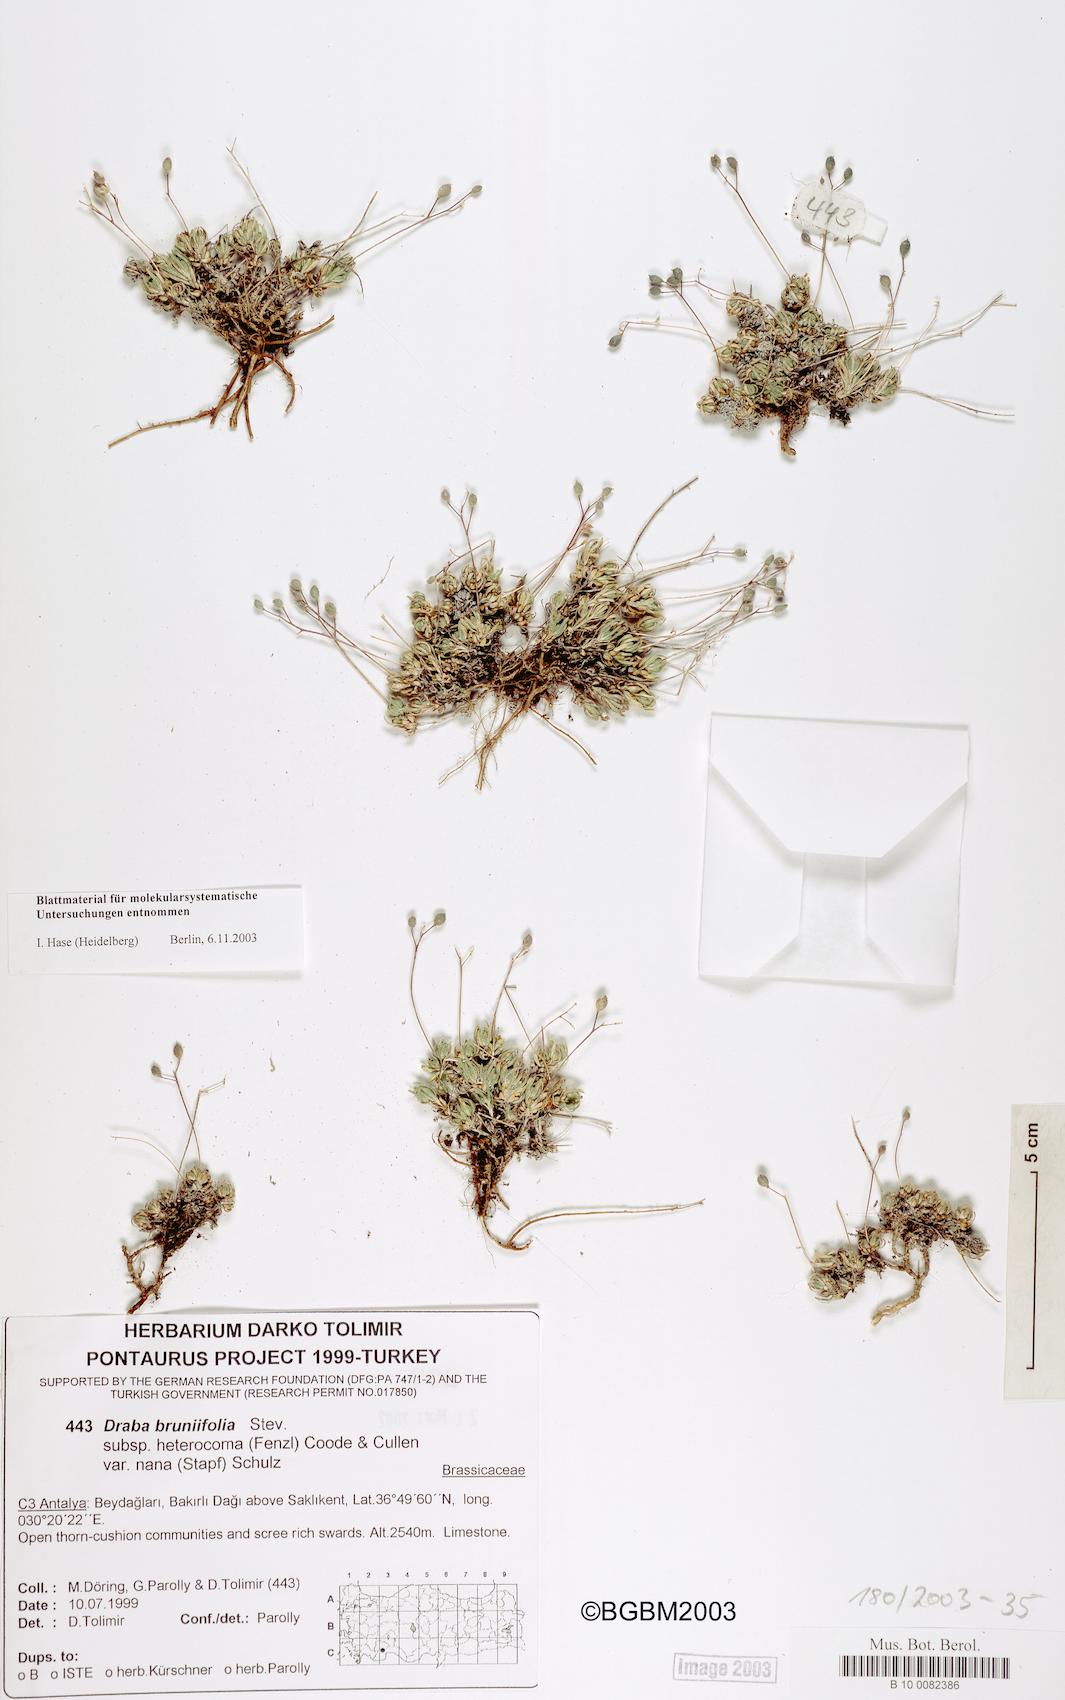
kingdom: Plantae
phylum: Tracheophyta
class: Magnoliopsida
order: Brassicales
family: Brassicaceae
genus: Draba
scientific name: Draba nana
